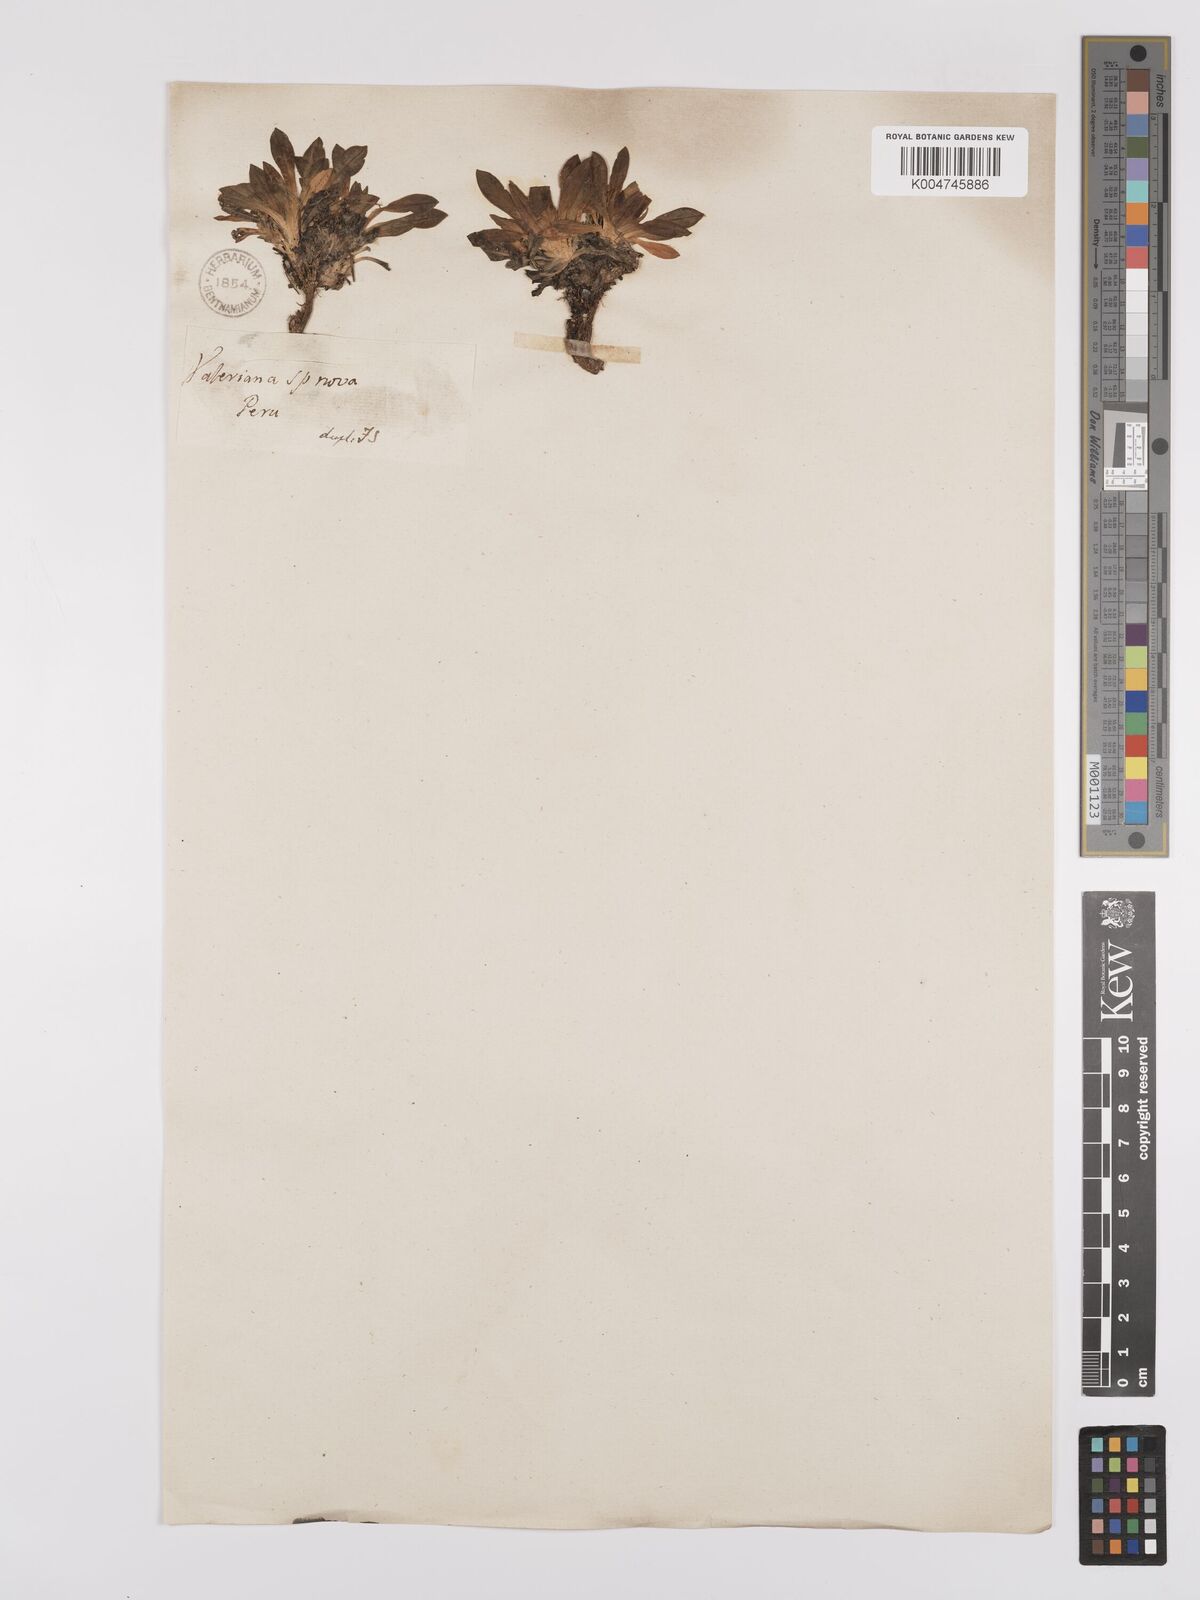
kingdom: Plantae
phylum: Tracheophyta
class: Magnoliopsida
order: Asterales
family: Asteraceae
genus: Phyllactis
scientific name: Phyllactis
